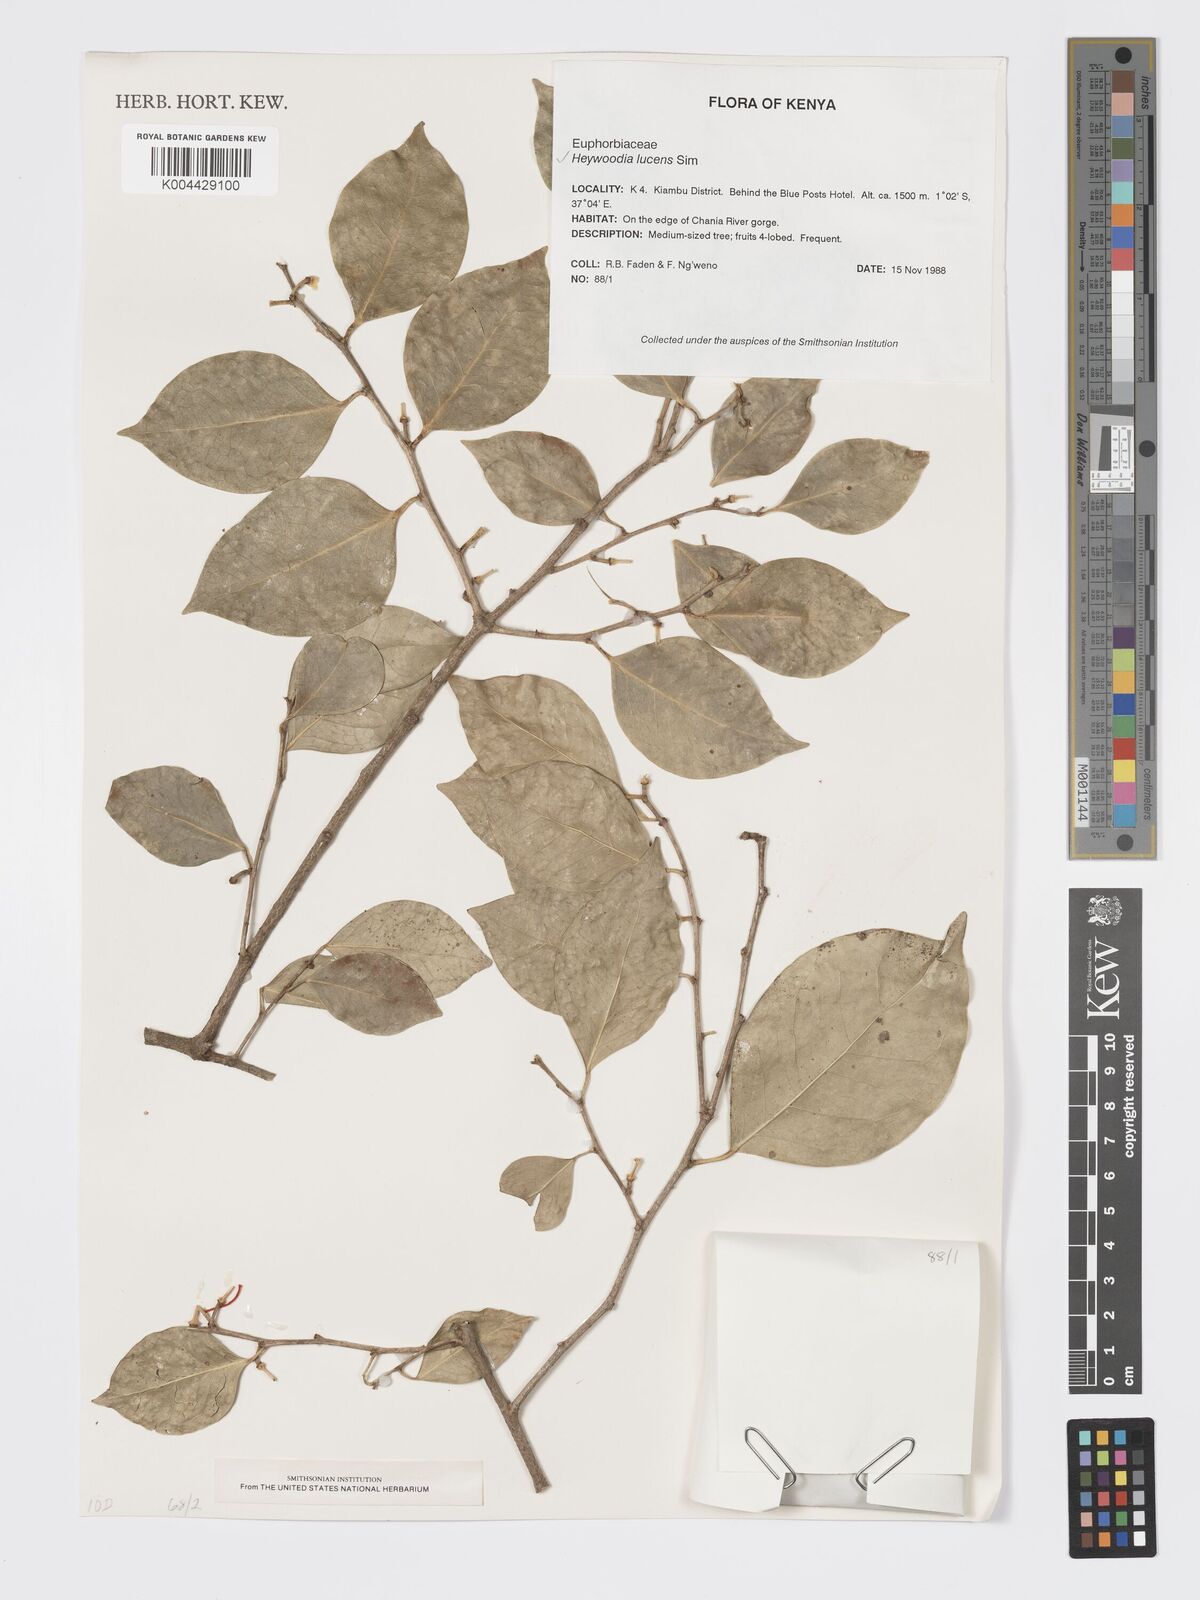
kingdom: Plantae
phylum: Tracheophyta
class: Magnoliopsida
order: Malpighiales
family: Phyllanthaceae
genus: Heywoodia
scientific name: Heywoodia lucens
